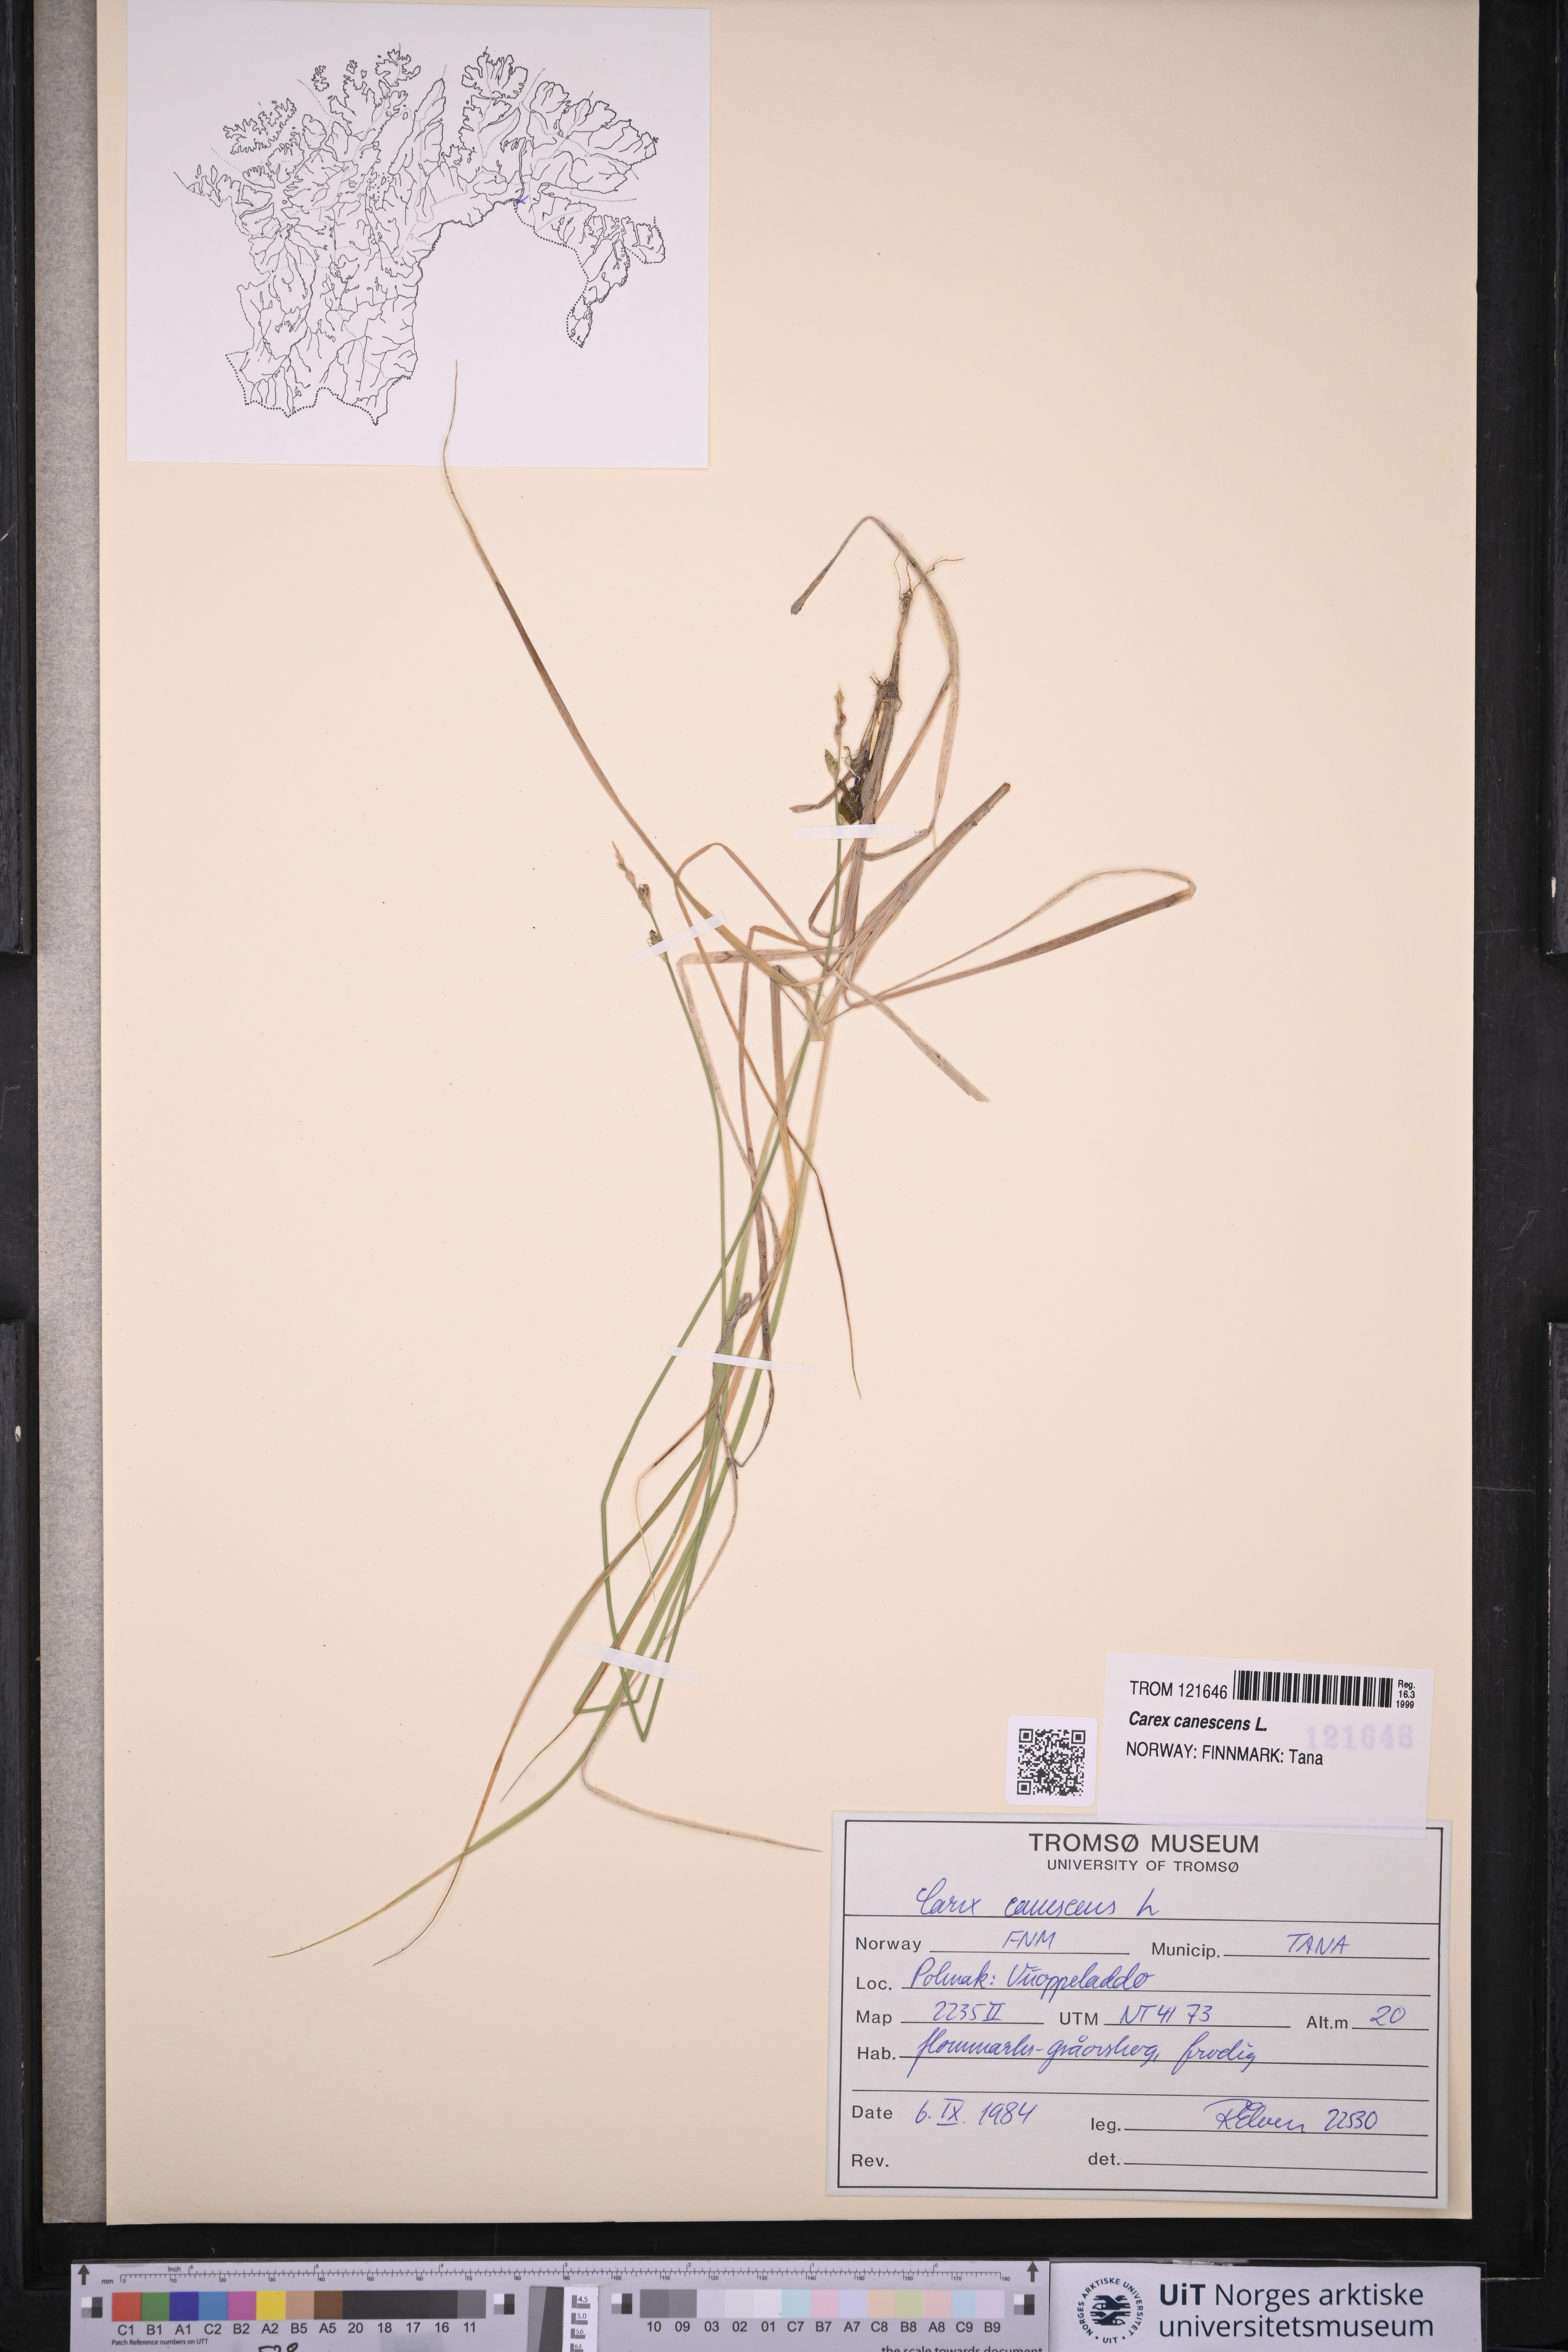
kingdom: Plantae
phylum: Tracheophyta
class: Liliopsida
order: Poales
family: Cyperaceae
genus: Carex
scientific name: Carex canescens
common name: White sedge
